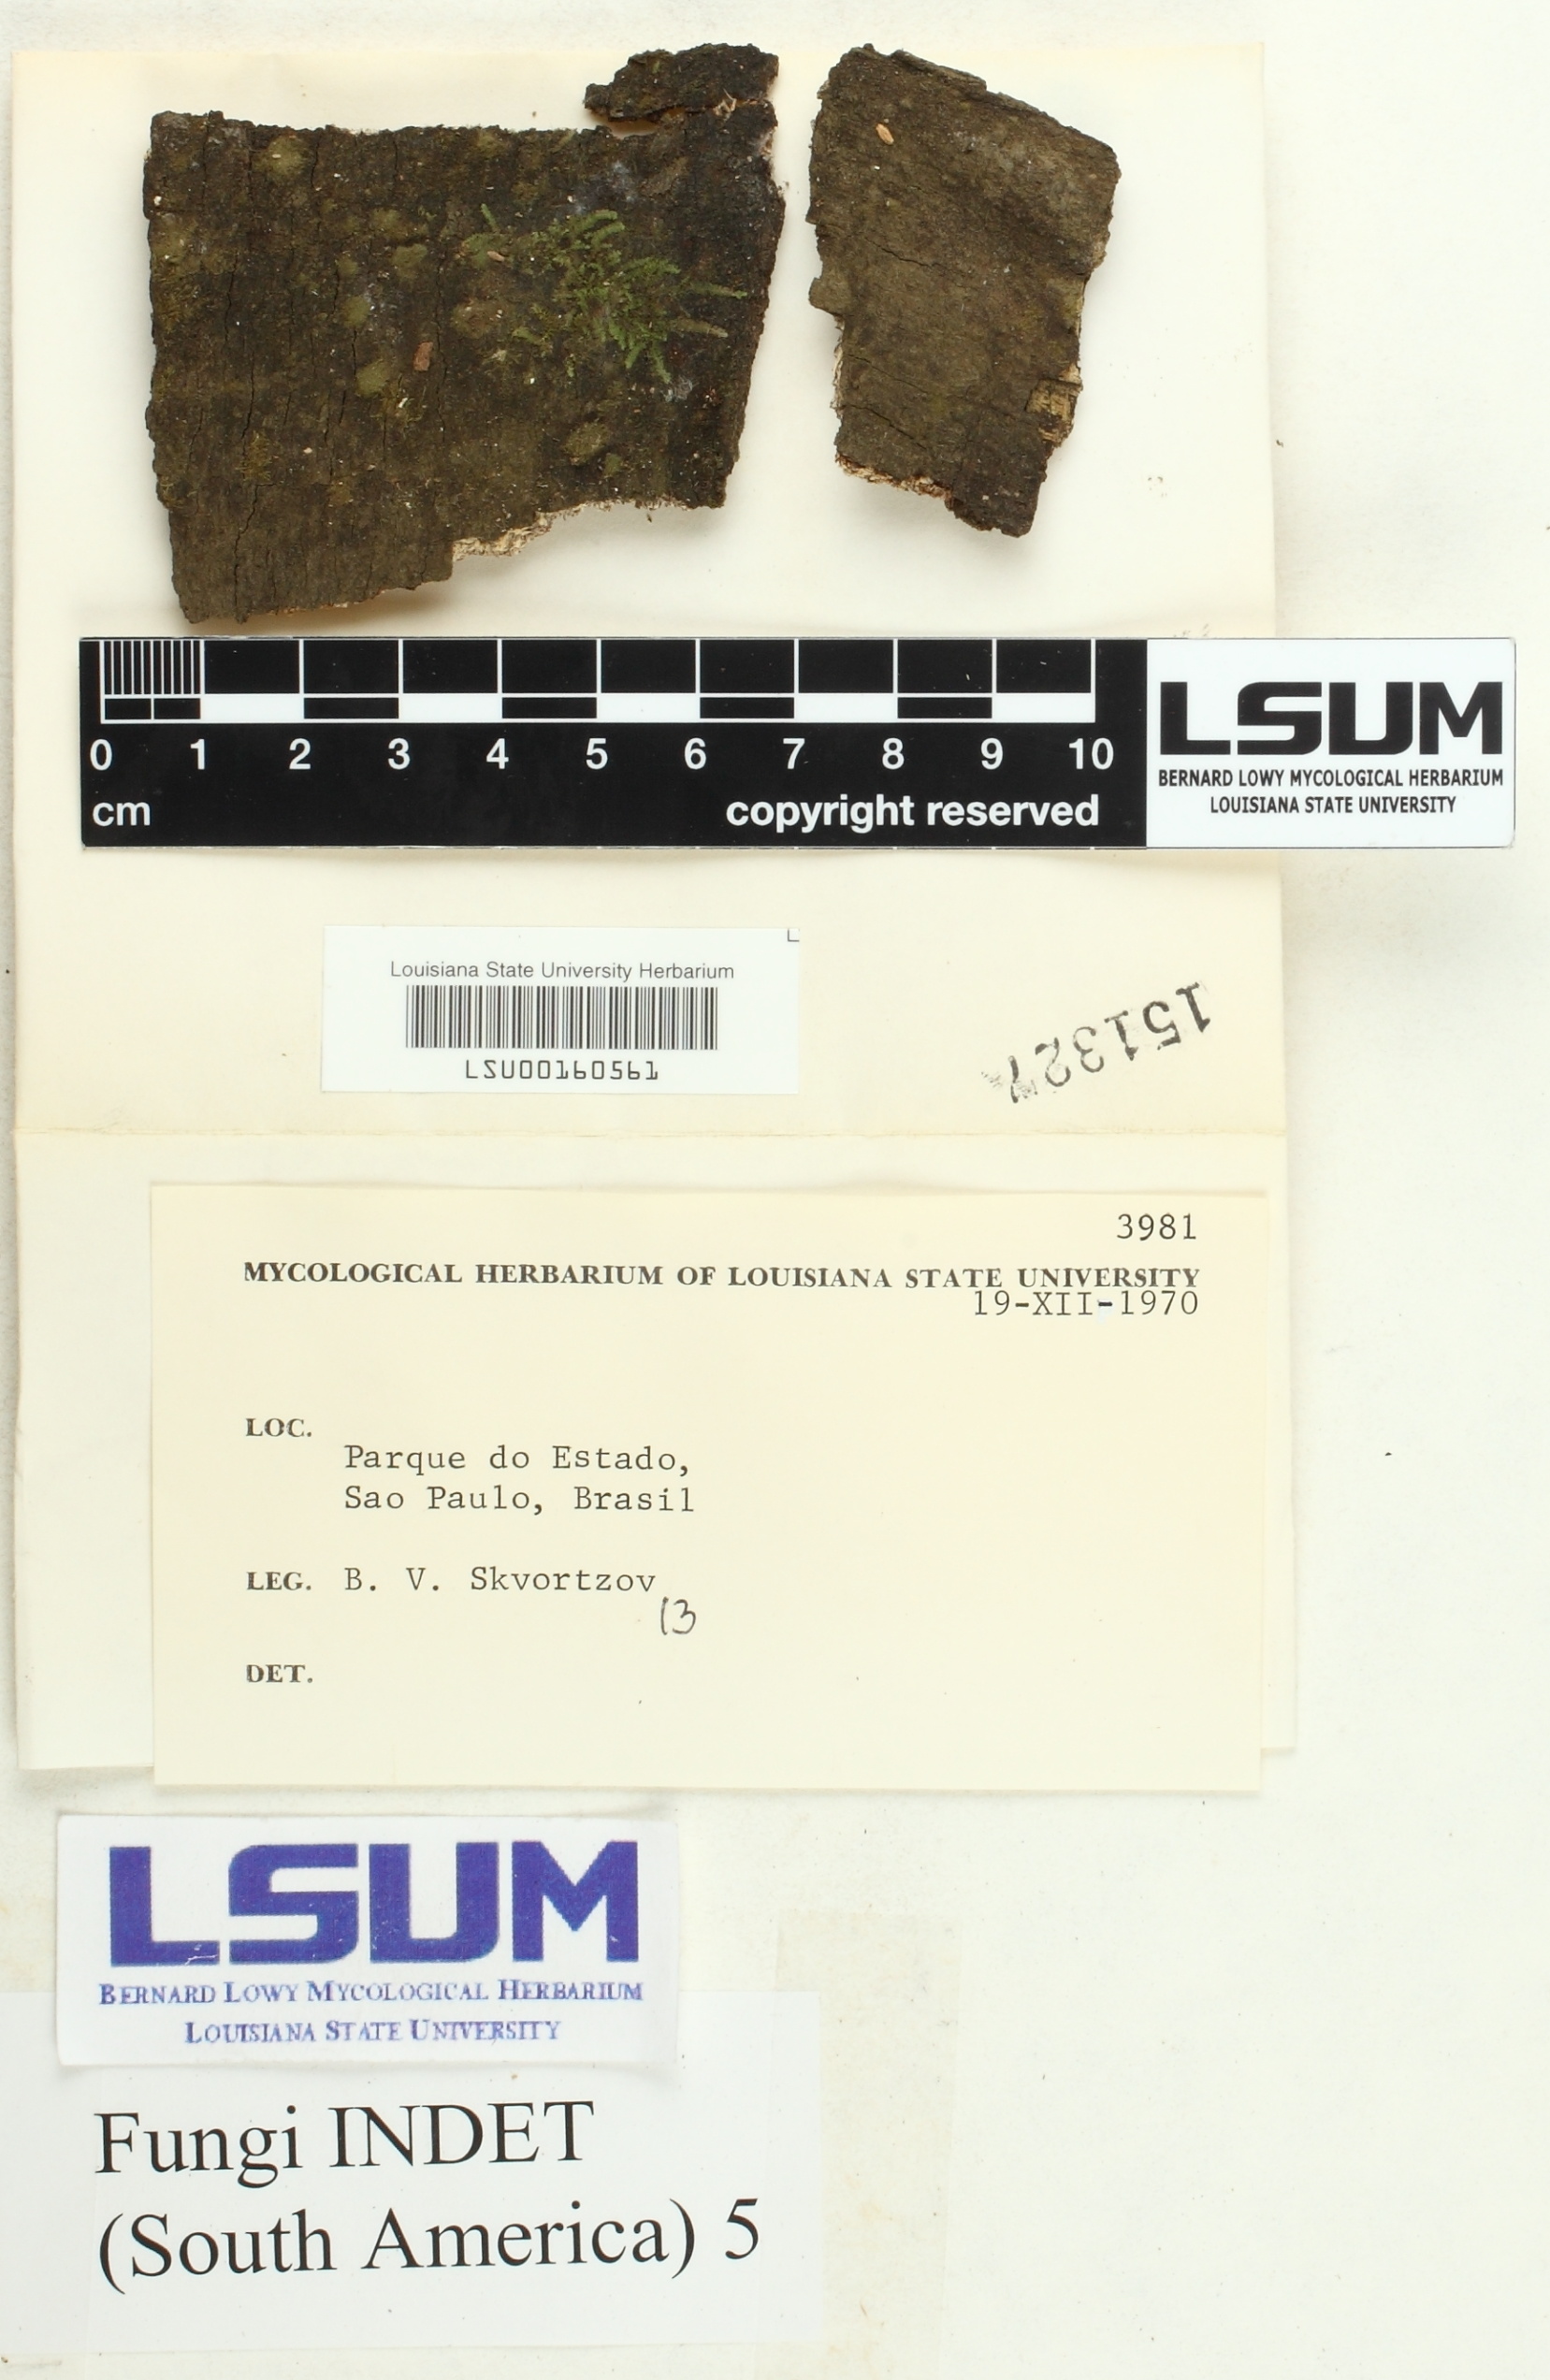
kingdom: Fungi
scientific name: Fungi
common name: Fungi
